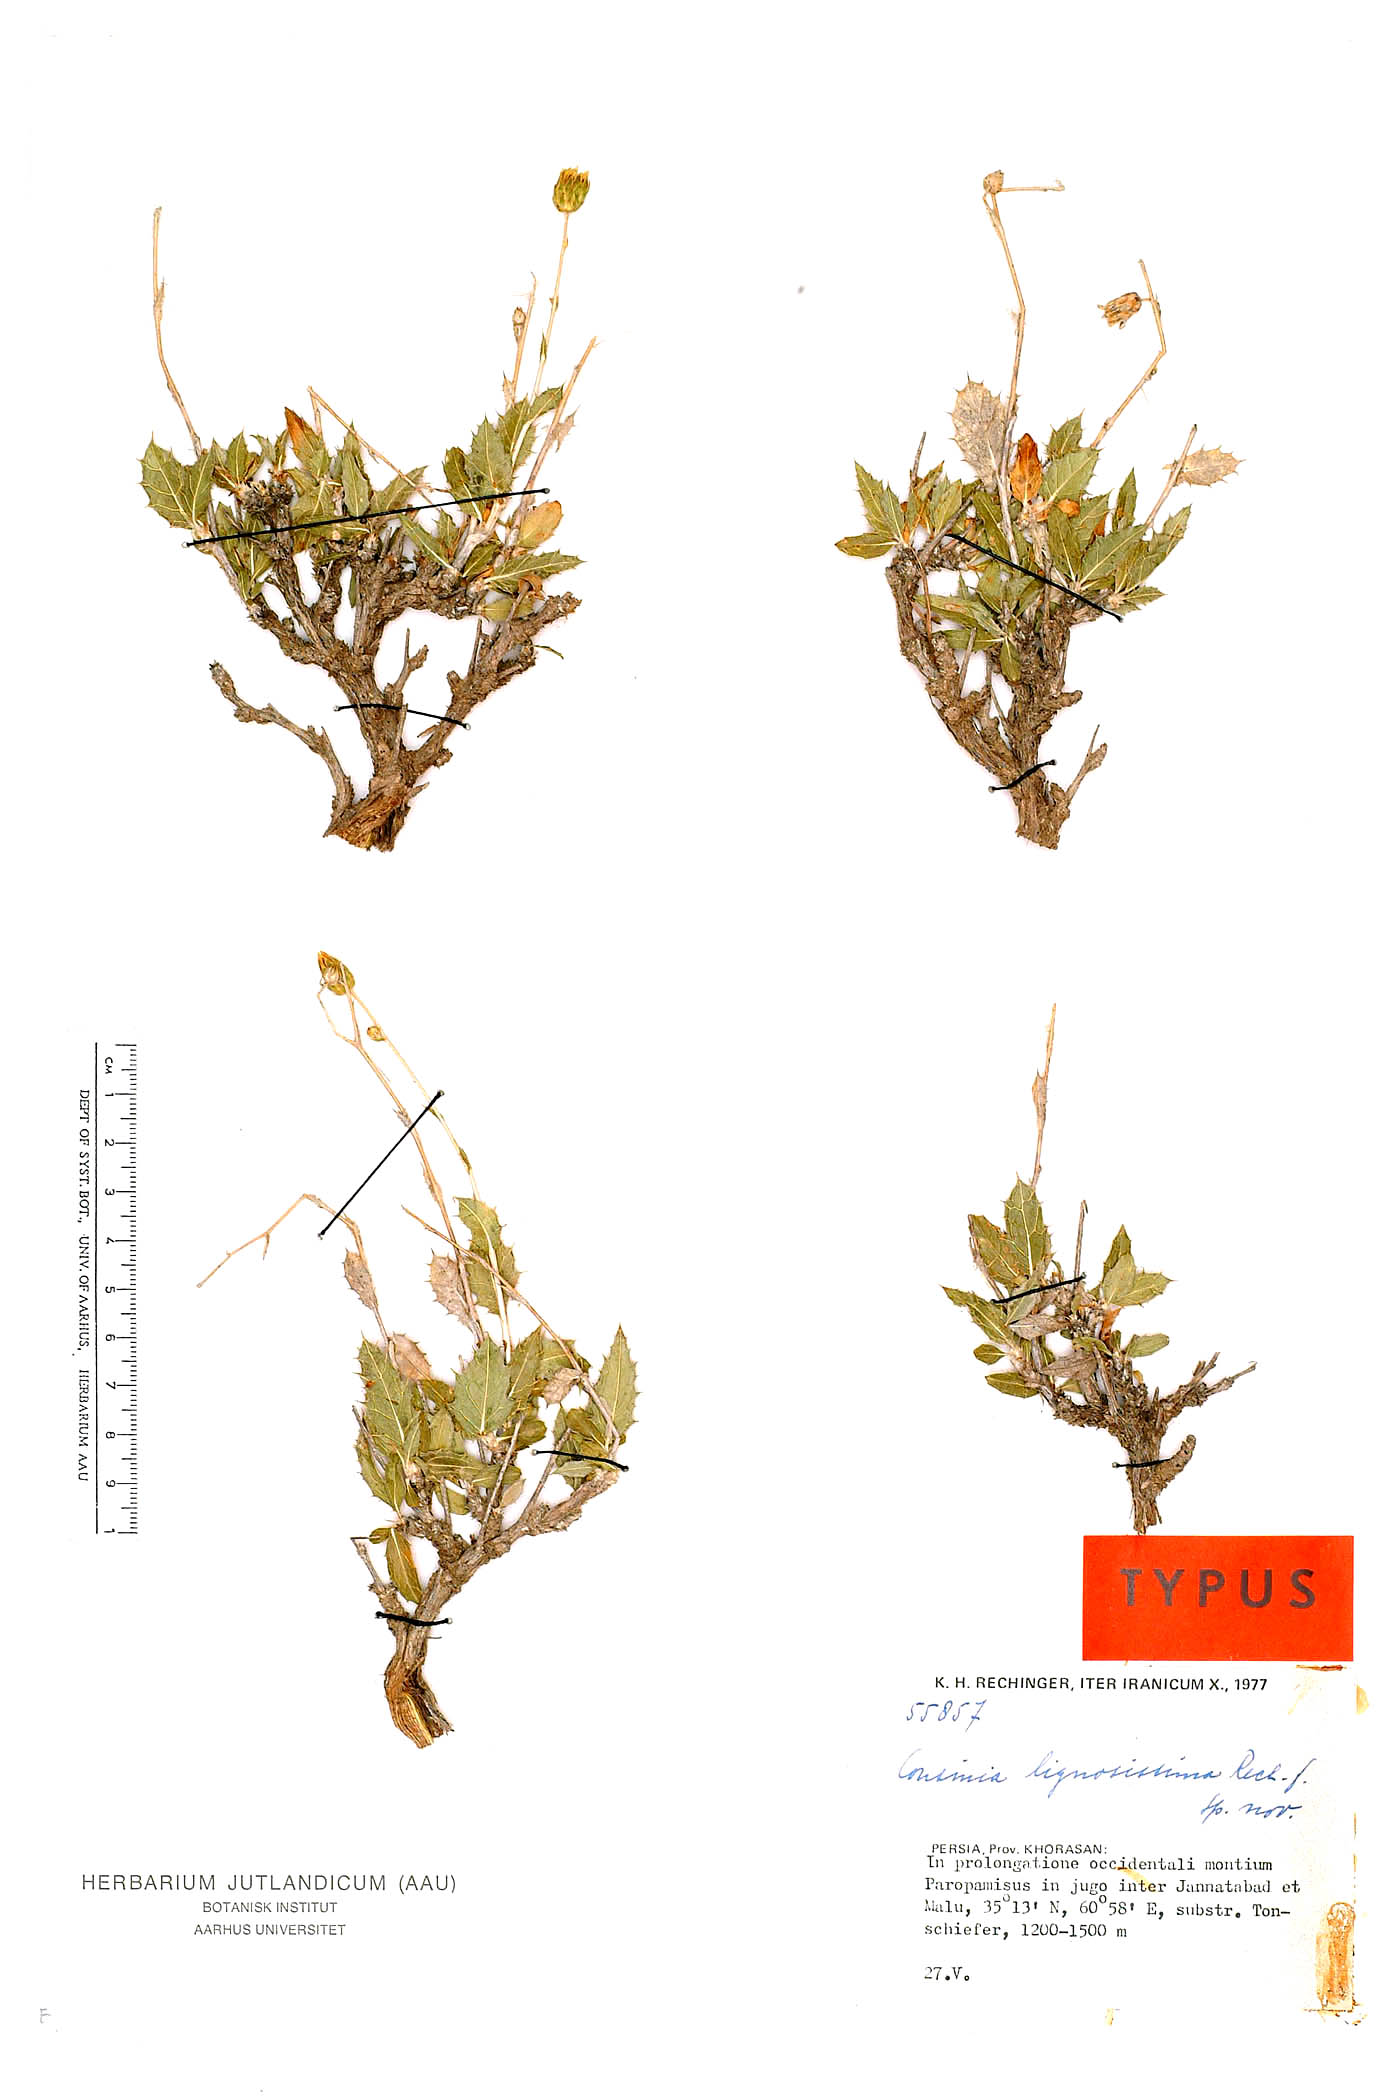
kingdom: Plantae
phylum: Tracheophyta
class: Magnoliopsida
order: Asterales
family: Asteraceae
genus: Cousinia
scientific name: Cousinia lignosissima
